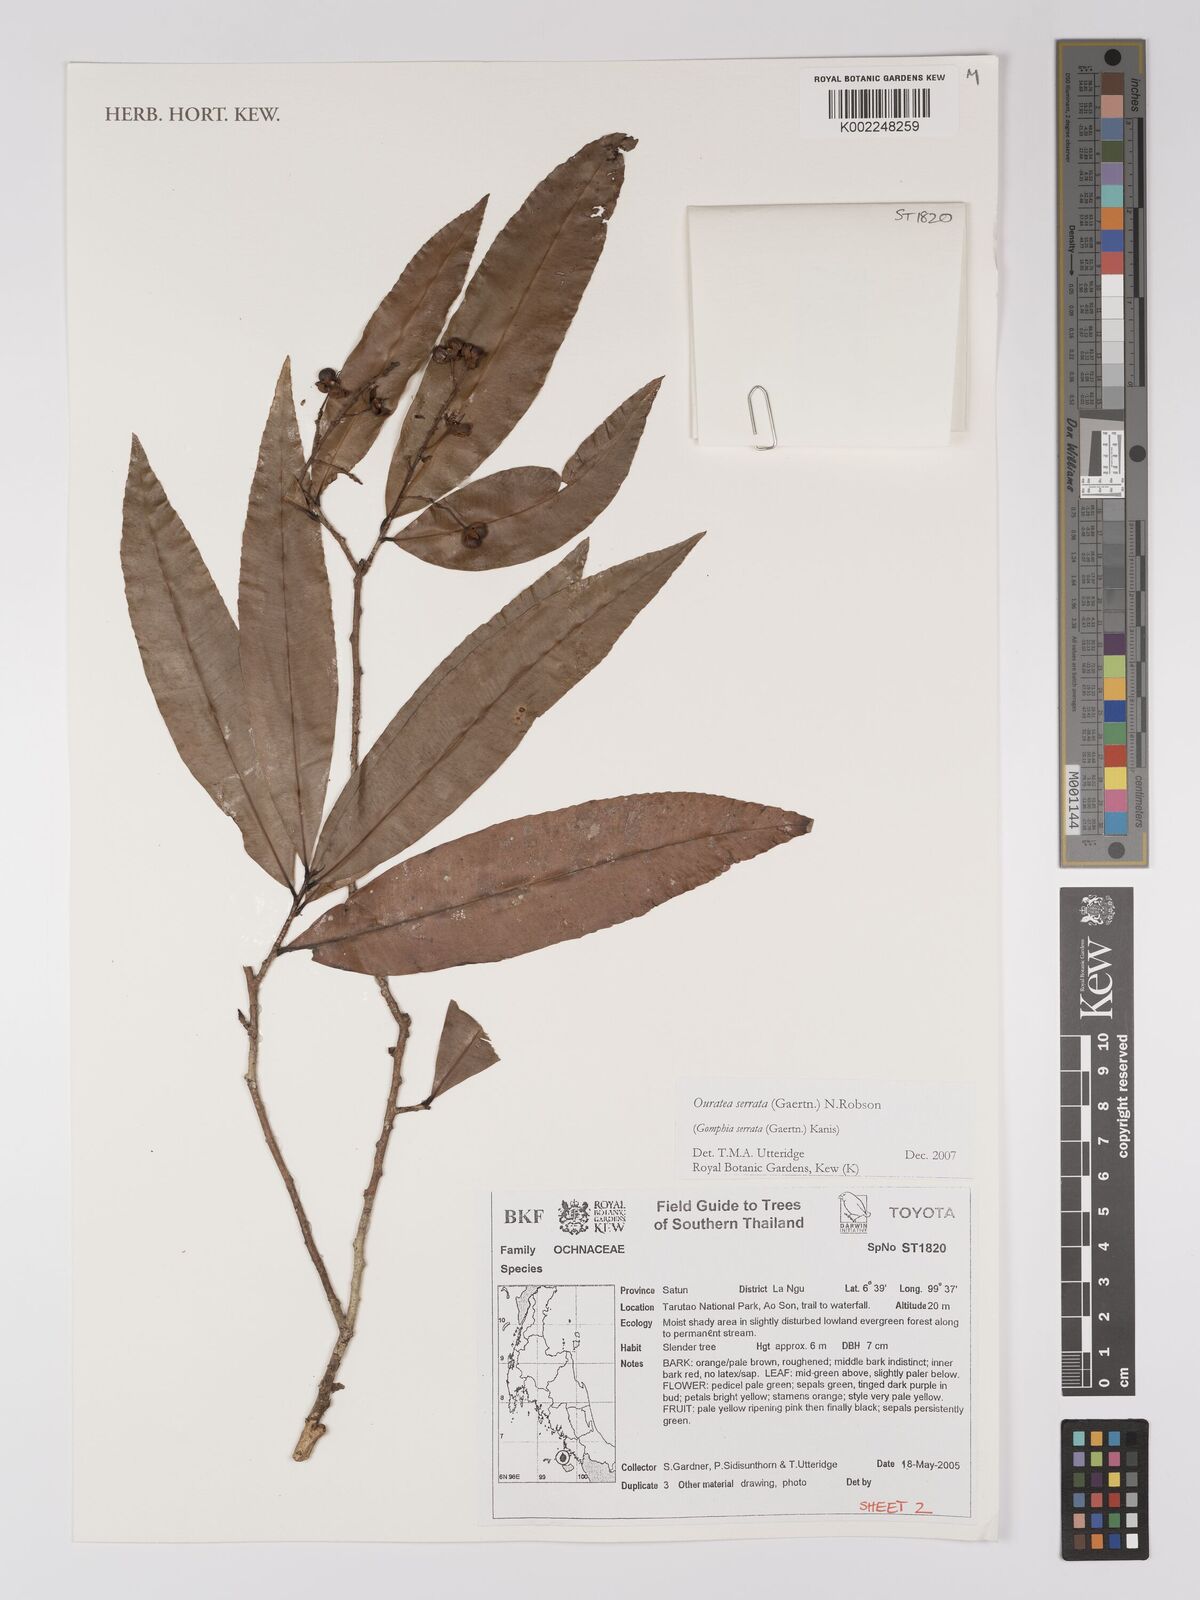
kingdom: Plantae
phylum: Tracheophyta
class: Magnoliopsida
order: Malpighiales
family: Ochnaceae
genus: Gomphia
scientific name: Gomphia serrata
